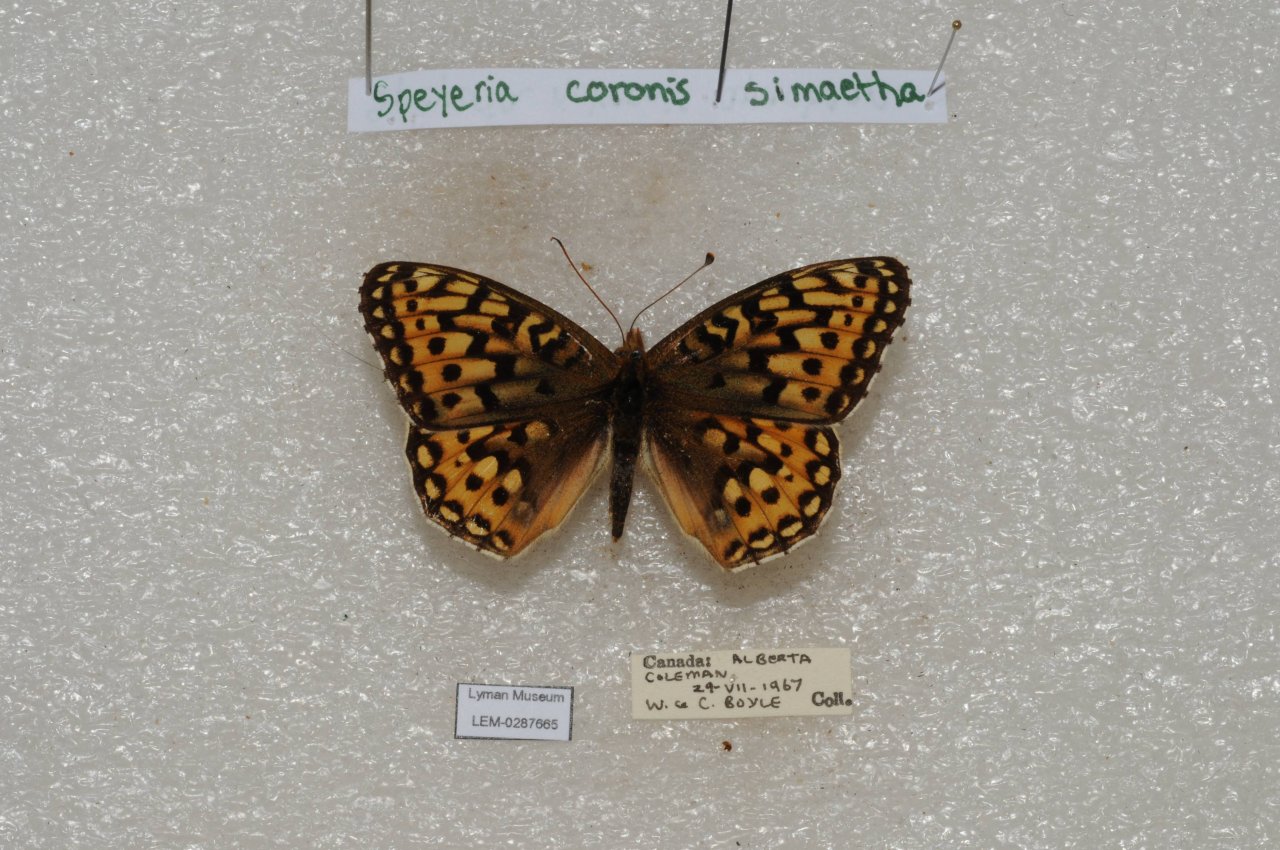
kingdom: Animalia
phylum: Arthropoda
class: Insecta
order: Lepidoptera
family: Nymphalidae
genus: Speyeria
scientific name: Speyeria coronis
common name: Coronis Fritillary
